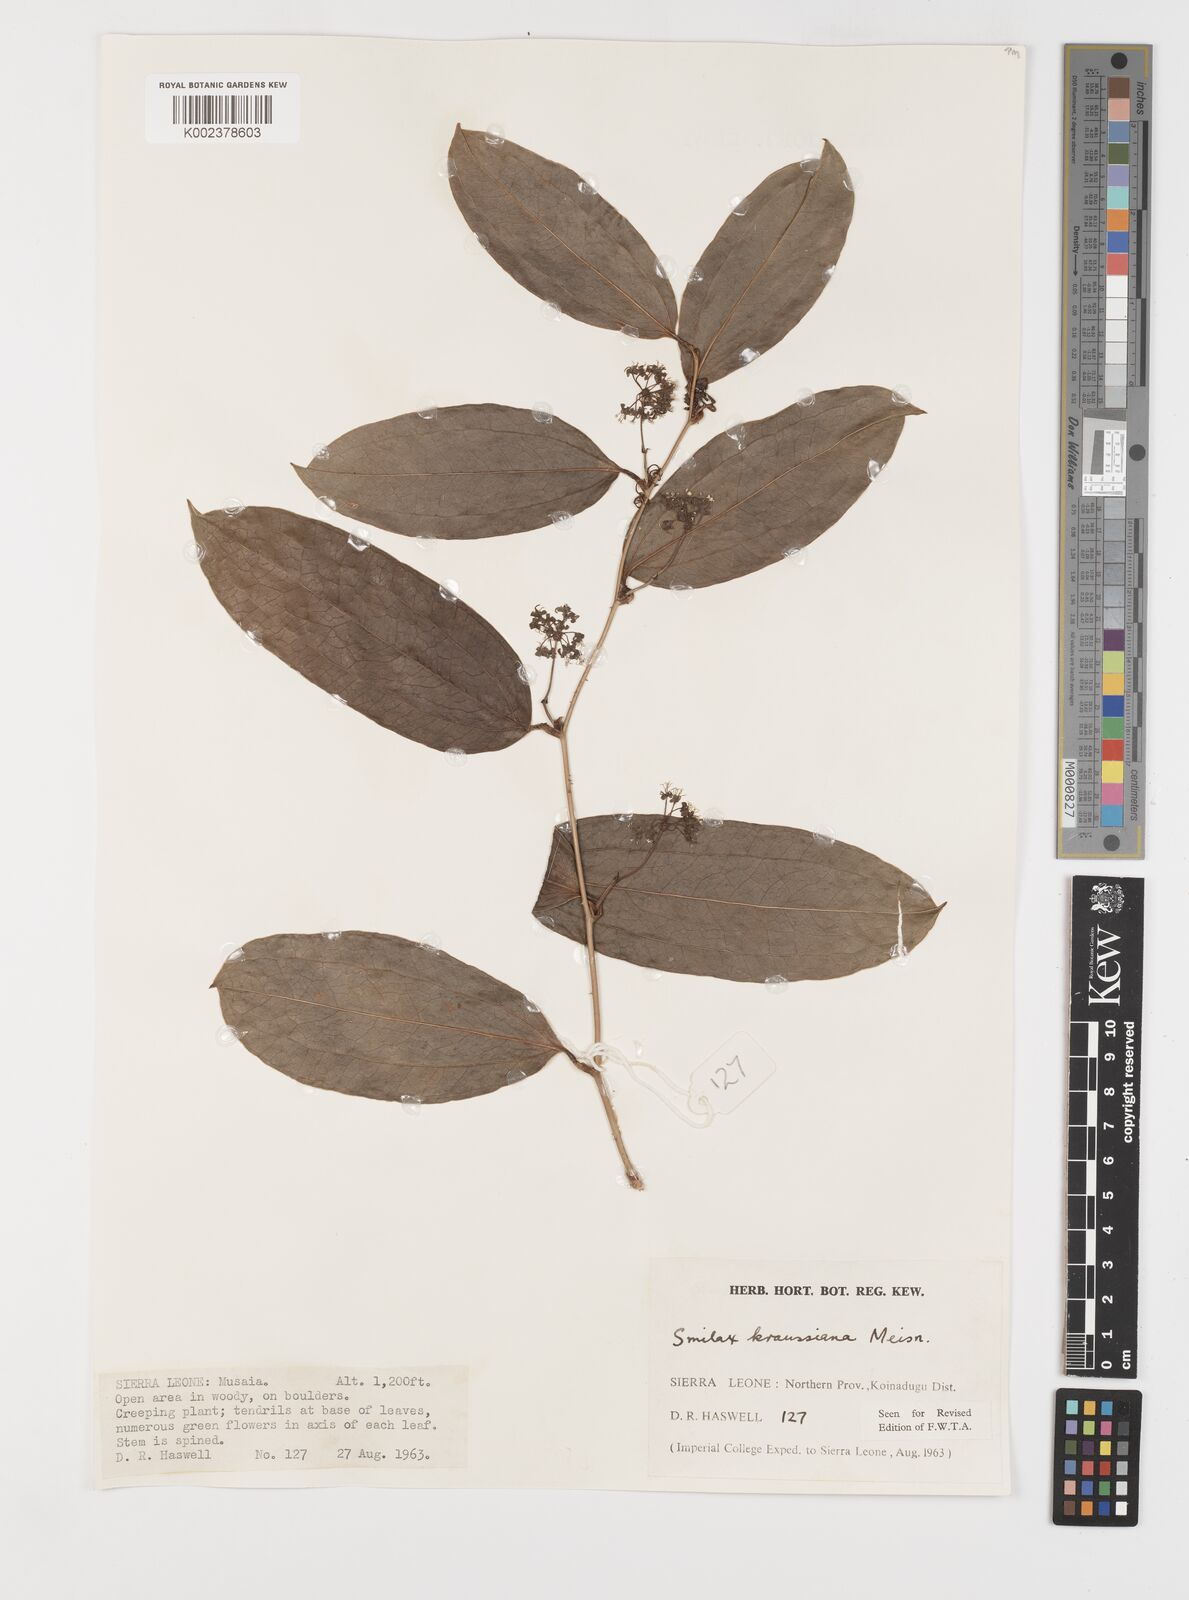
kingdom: Plantae
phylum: Tracheophyta
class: Liliopsida
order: Liliales
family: Smilacaceae
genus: Smilax
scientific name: Smilax anceps
